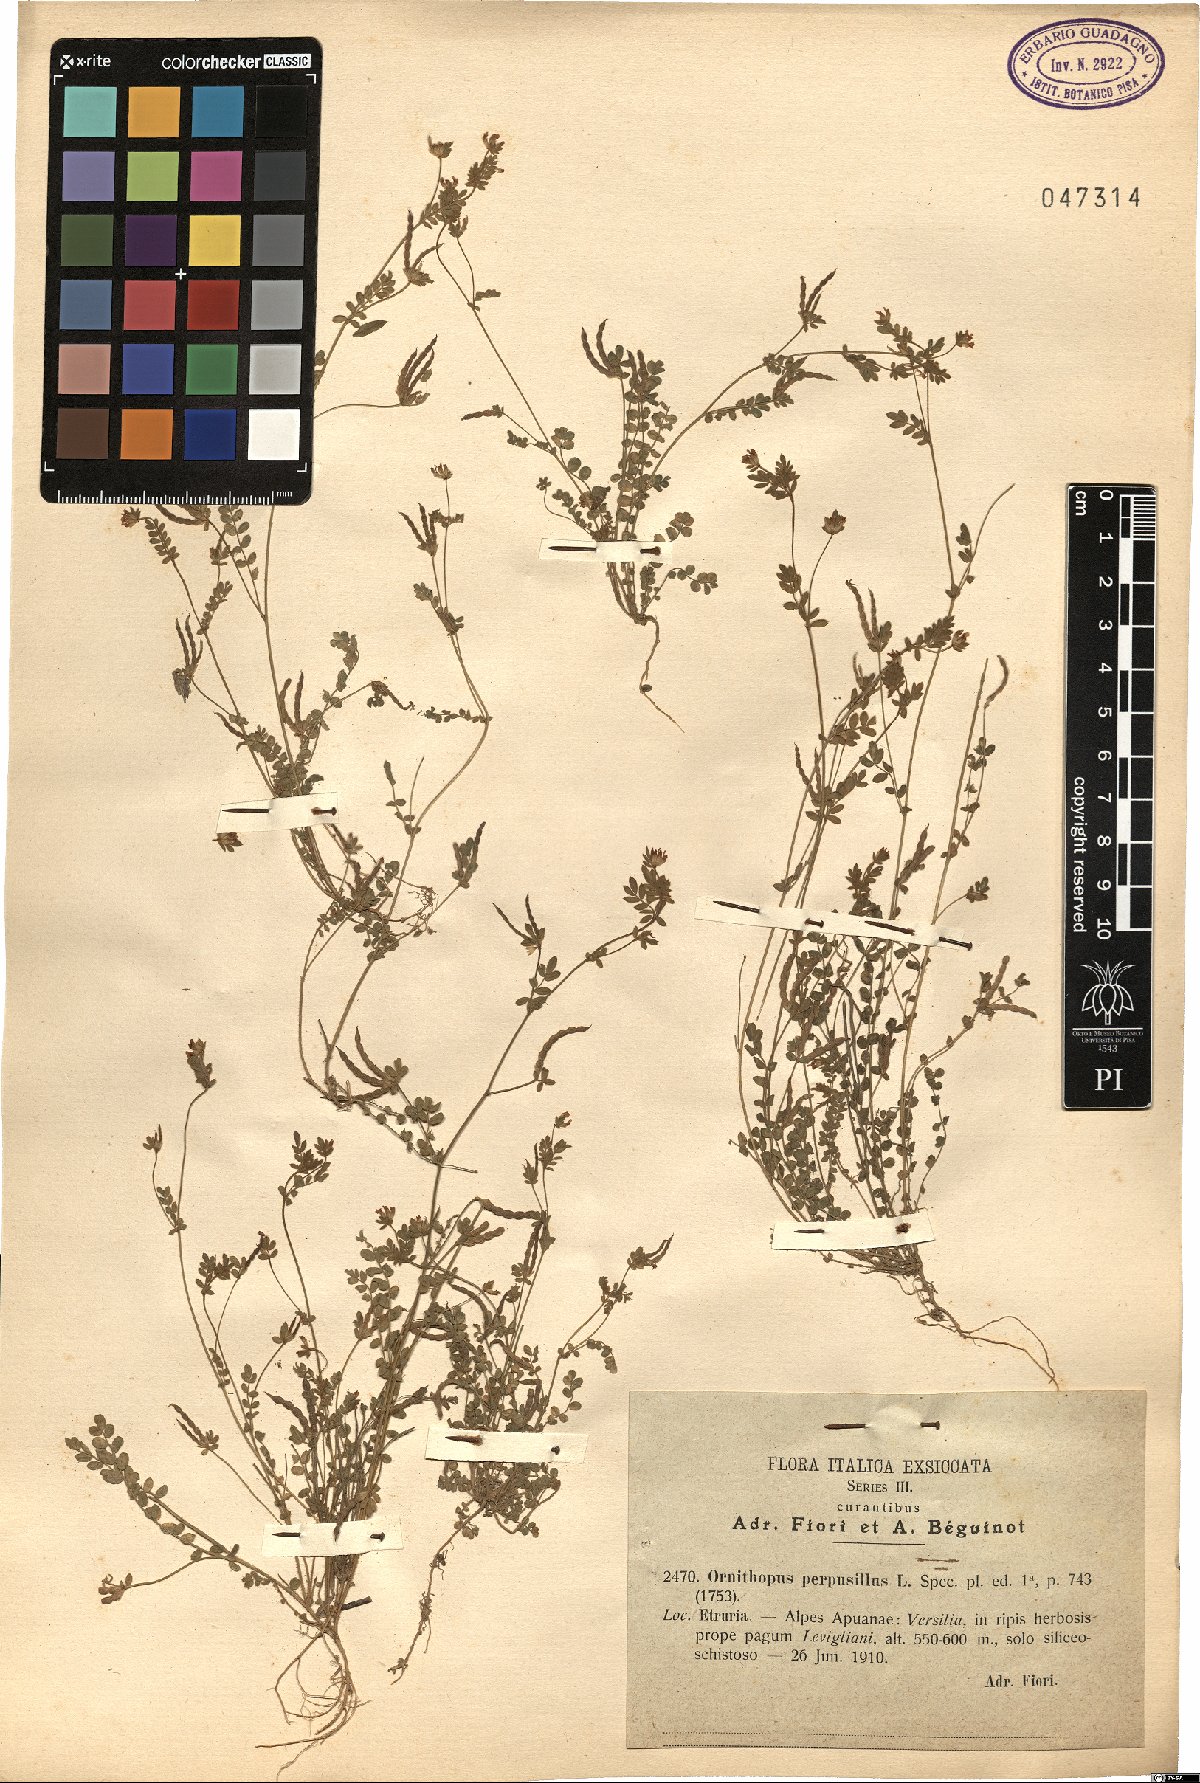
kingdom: Plantae
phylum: Tracheophyta
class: Magnoliopsida
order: Fabales
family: Fabaceae
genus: Ornithopus
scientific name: Ornithopus perpusillus
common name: Bird's-foot
